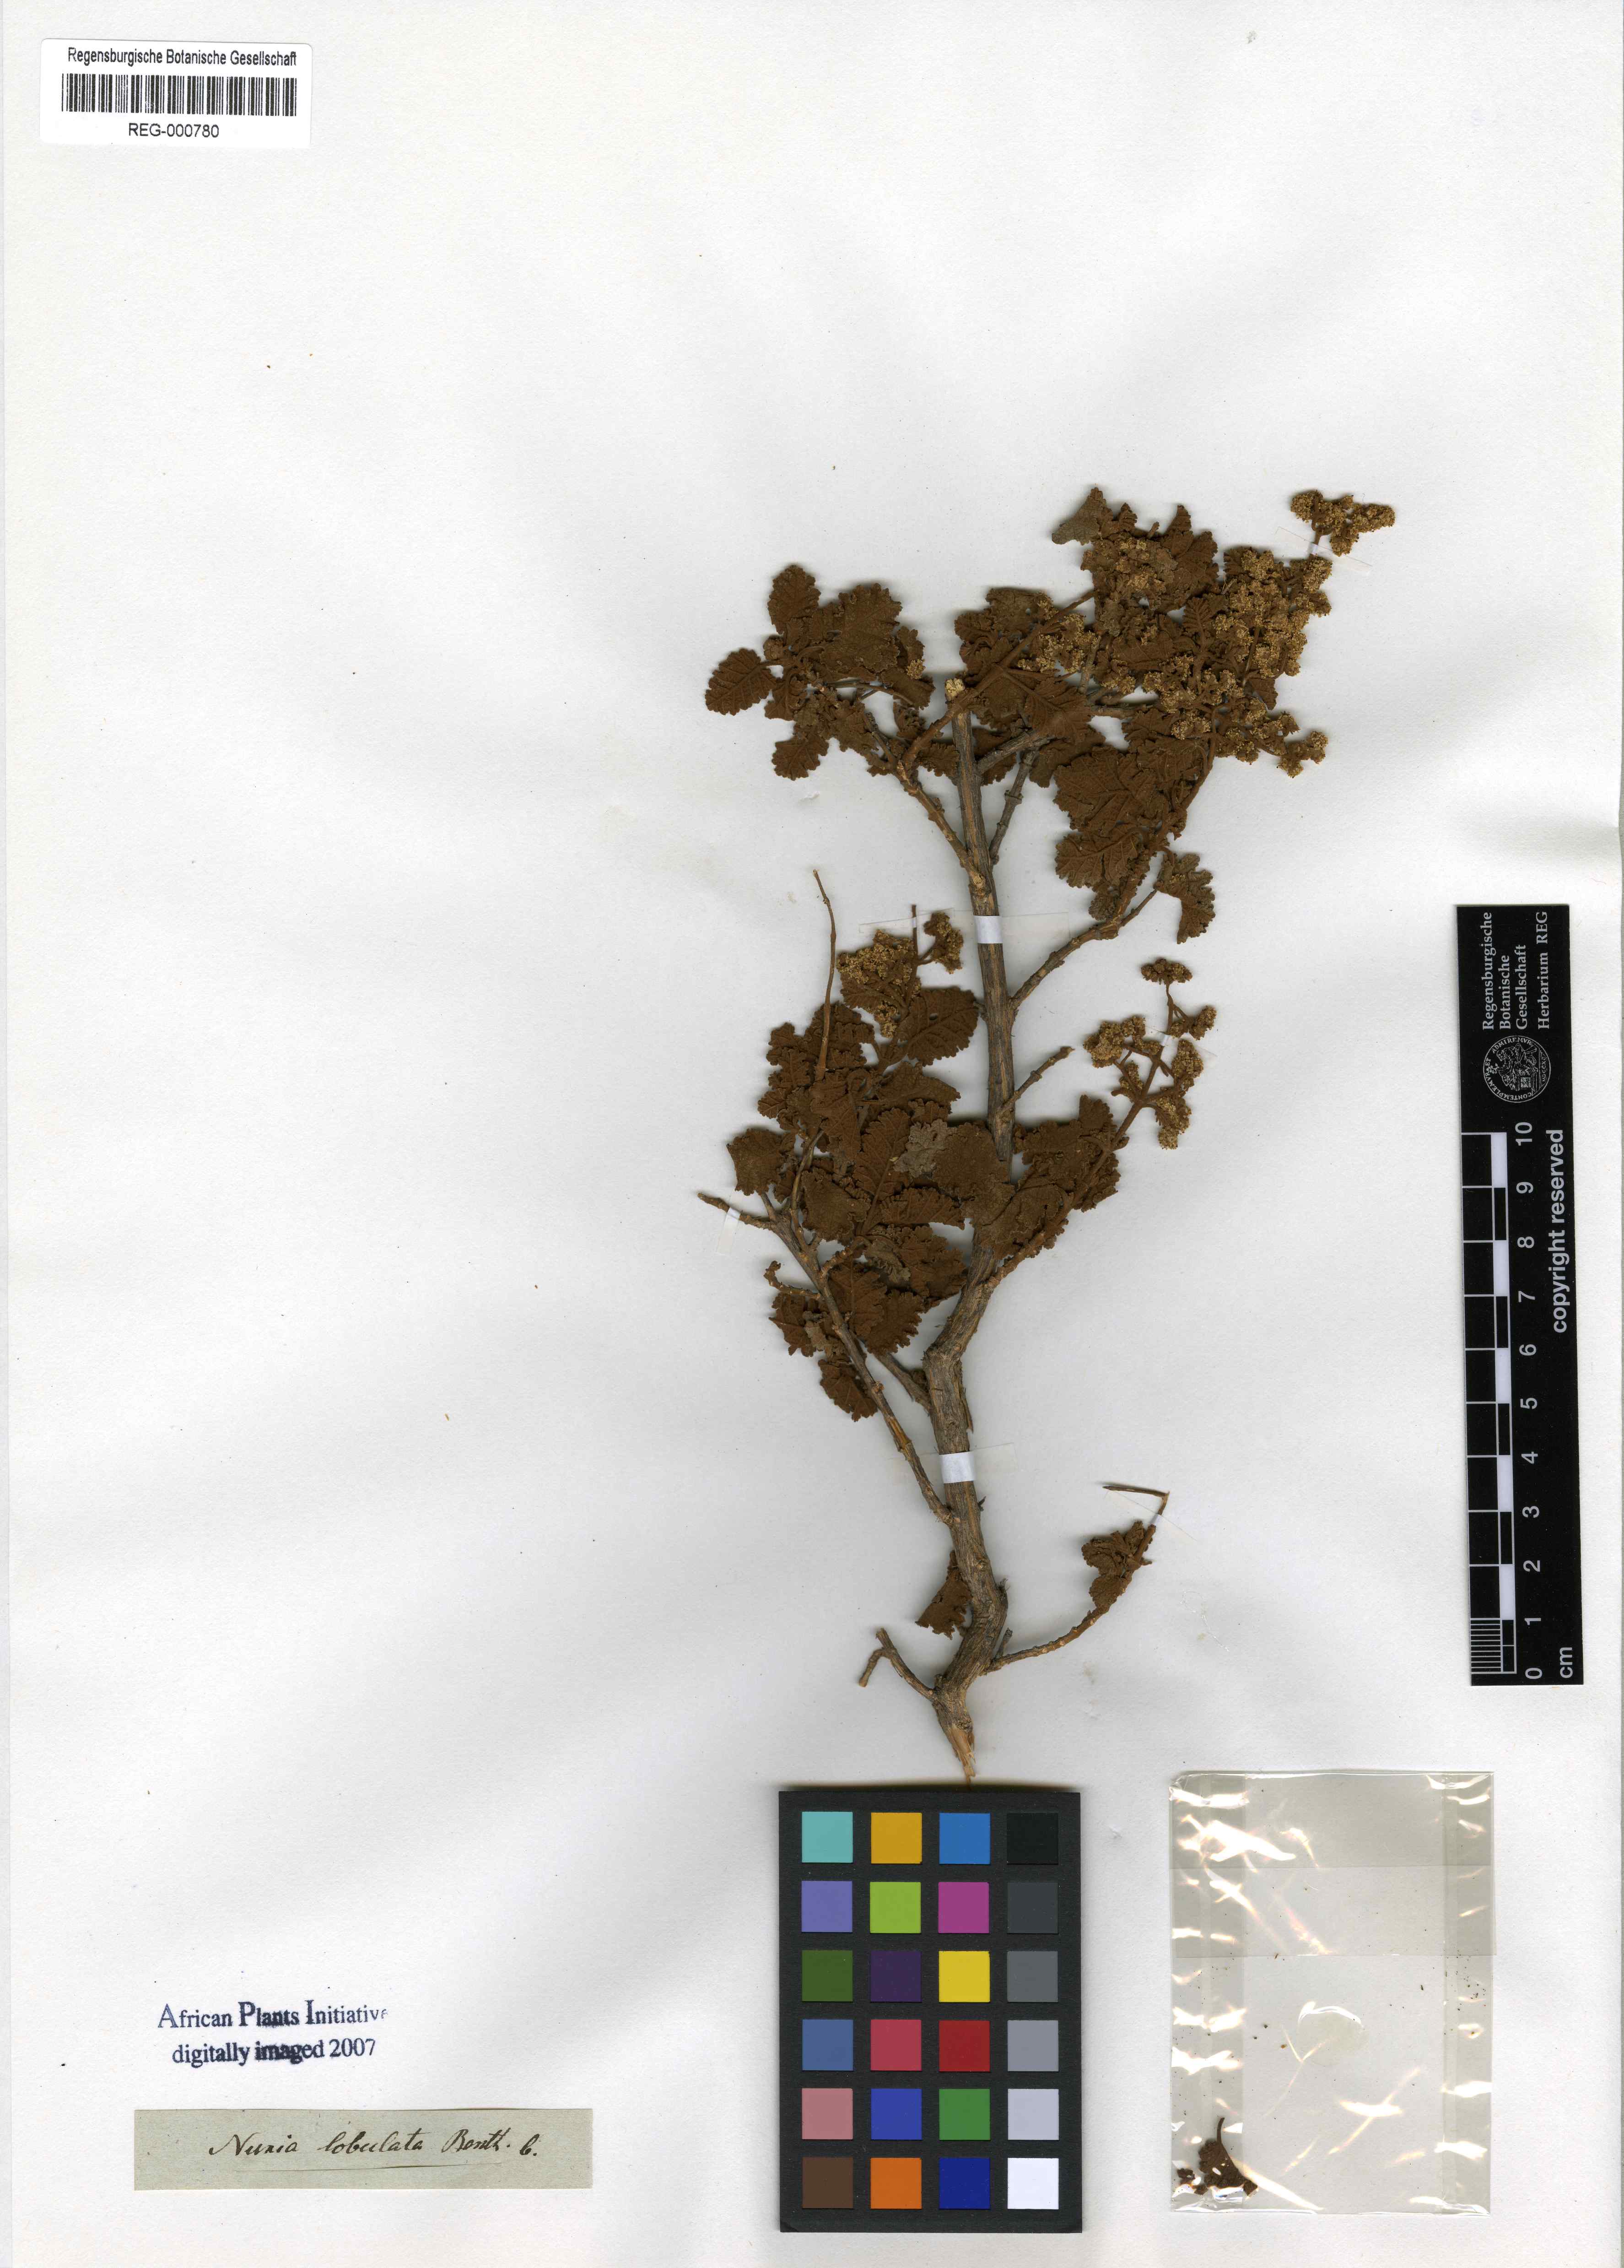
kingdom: Plantae
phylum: Tracheophyta
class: Magnoliopsida
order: Lamiales
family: Scrophulariaceae
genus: Buddleja
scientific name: Buddleja glomerata
